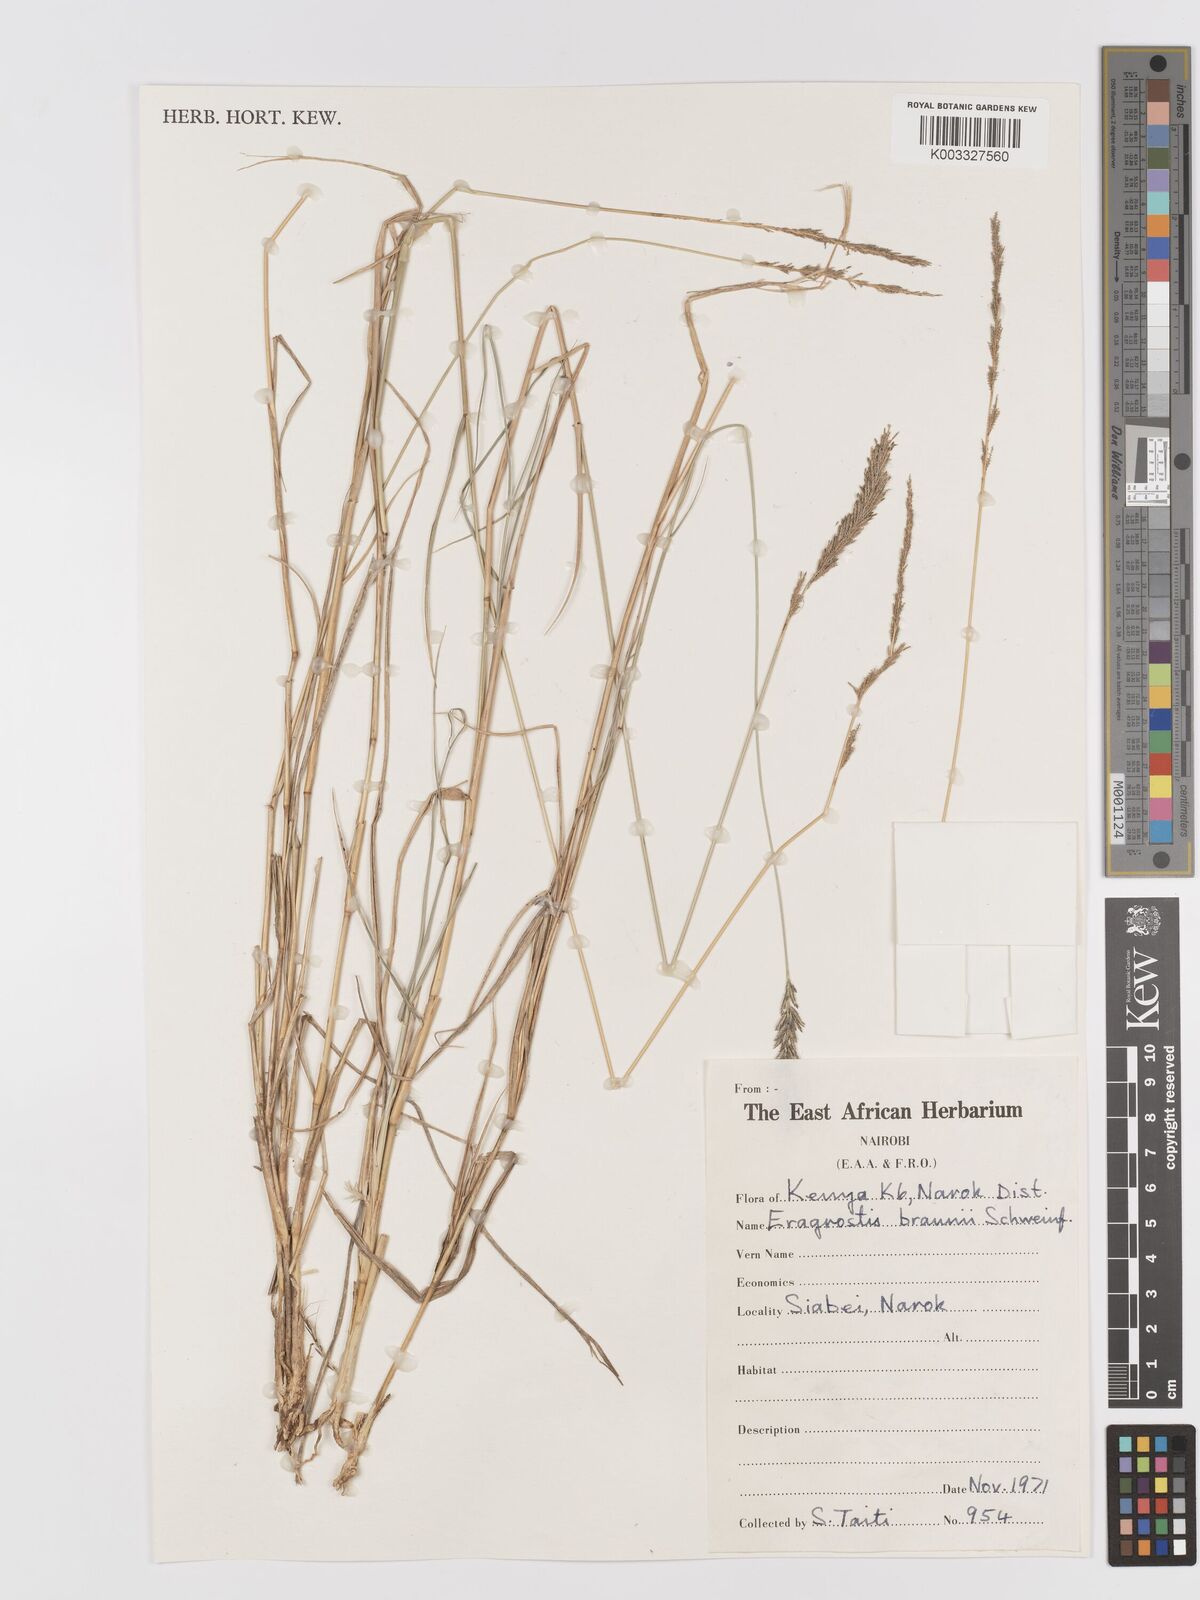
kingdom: Plantae
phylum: Tracheophyta
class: Liliopsida
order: Poales
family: Poaceae
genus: Eragrostis
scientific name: Eragrostis braunii
